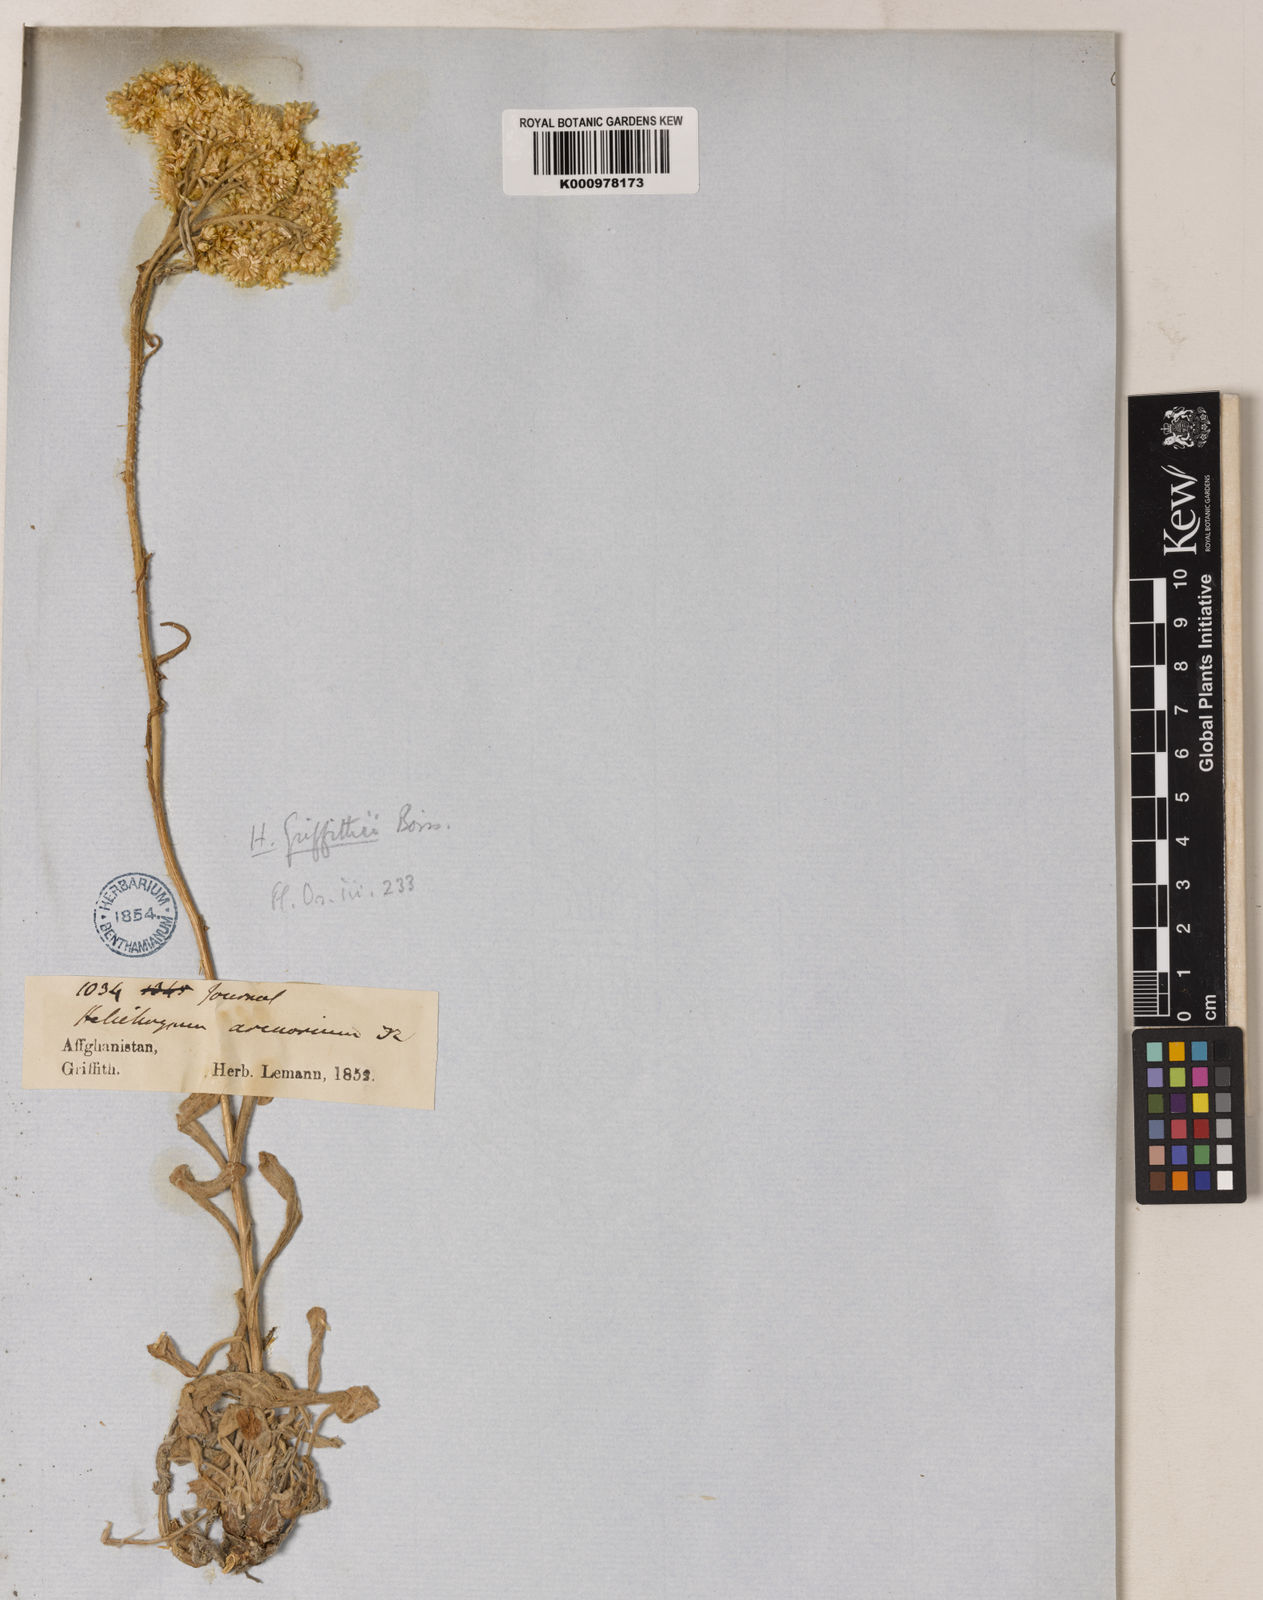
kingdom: Plantae
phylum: Tracheophyta
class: Magnoliopsida
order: Asterales
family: Asteraceae
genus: Pseudognaphalium
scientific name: Pseudognaphalium affine
